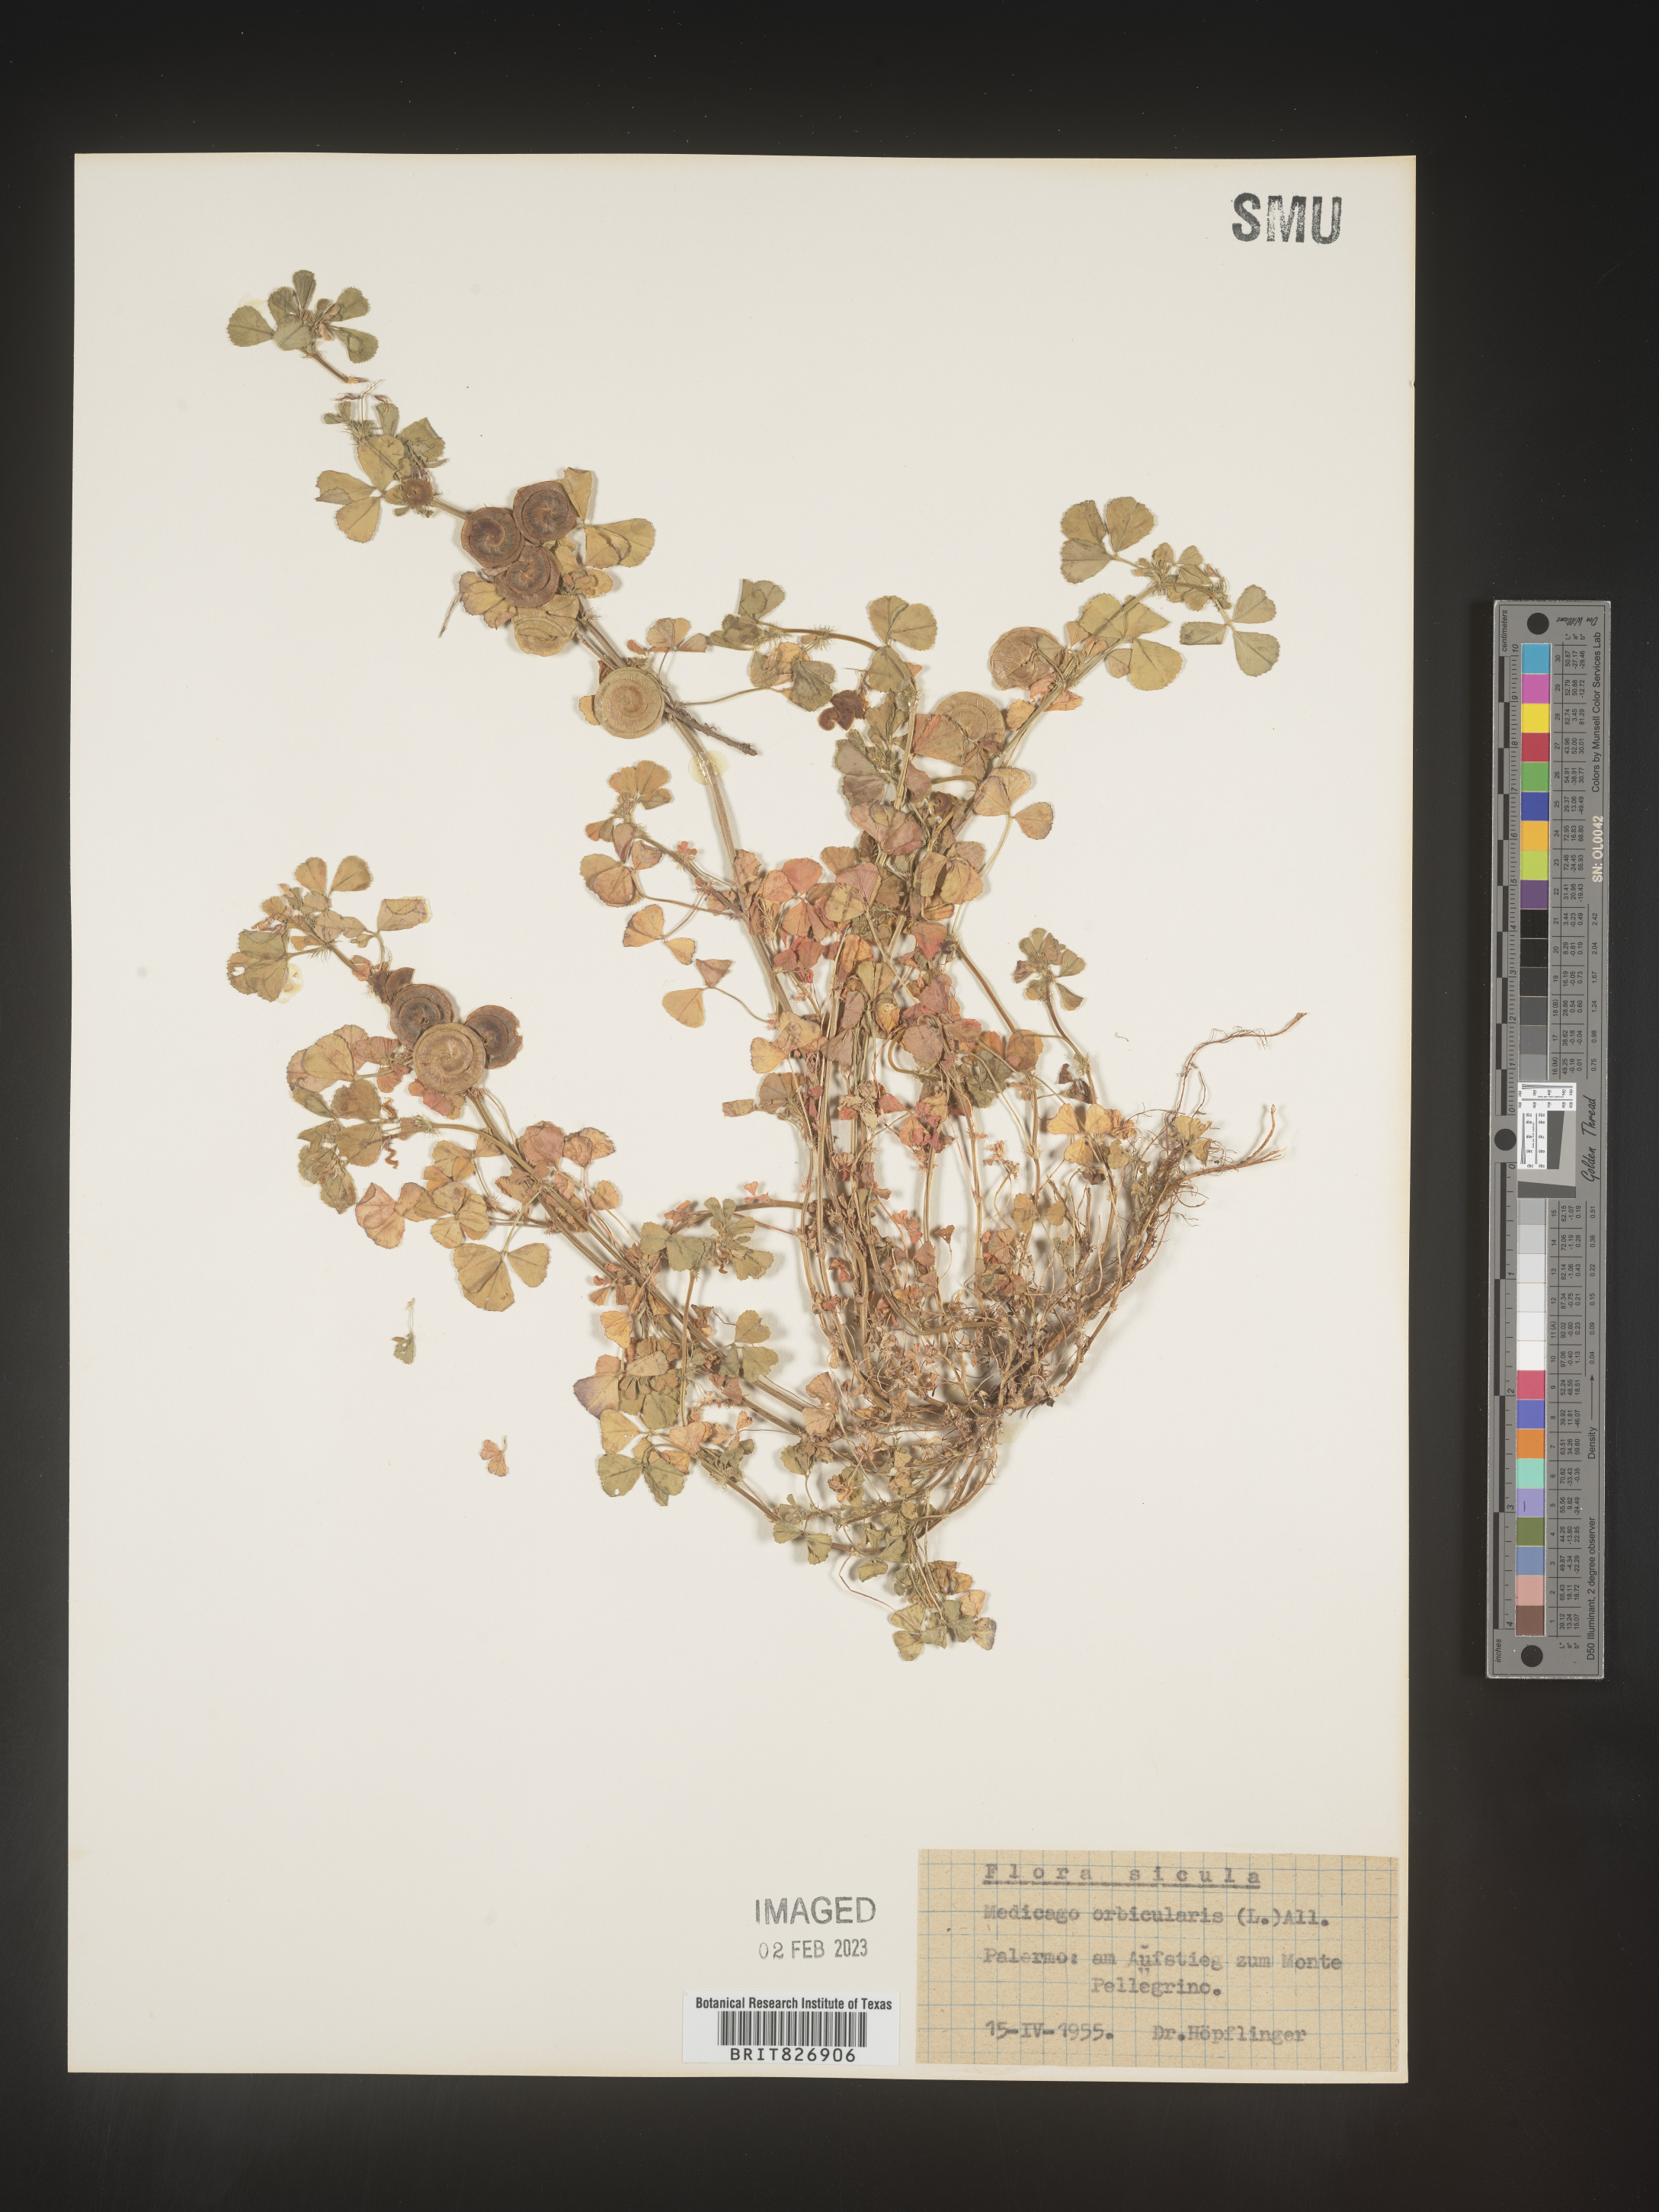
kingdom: Plantae
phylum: Tracheophyta
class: Magnoliopsida
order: Fabales
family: Fabaceae
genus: Medicago
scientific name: Medicago
